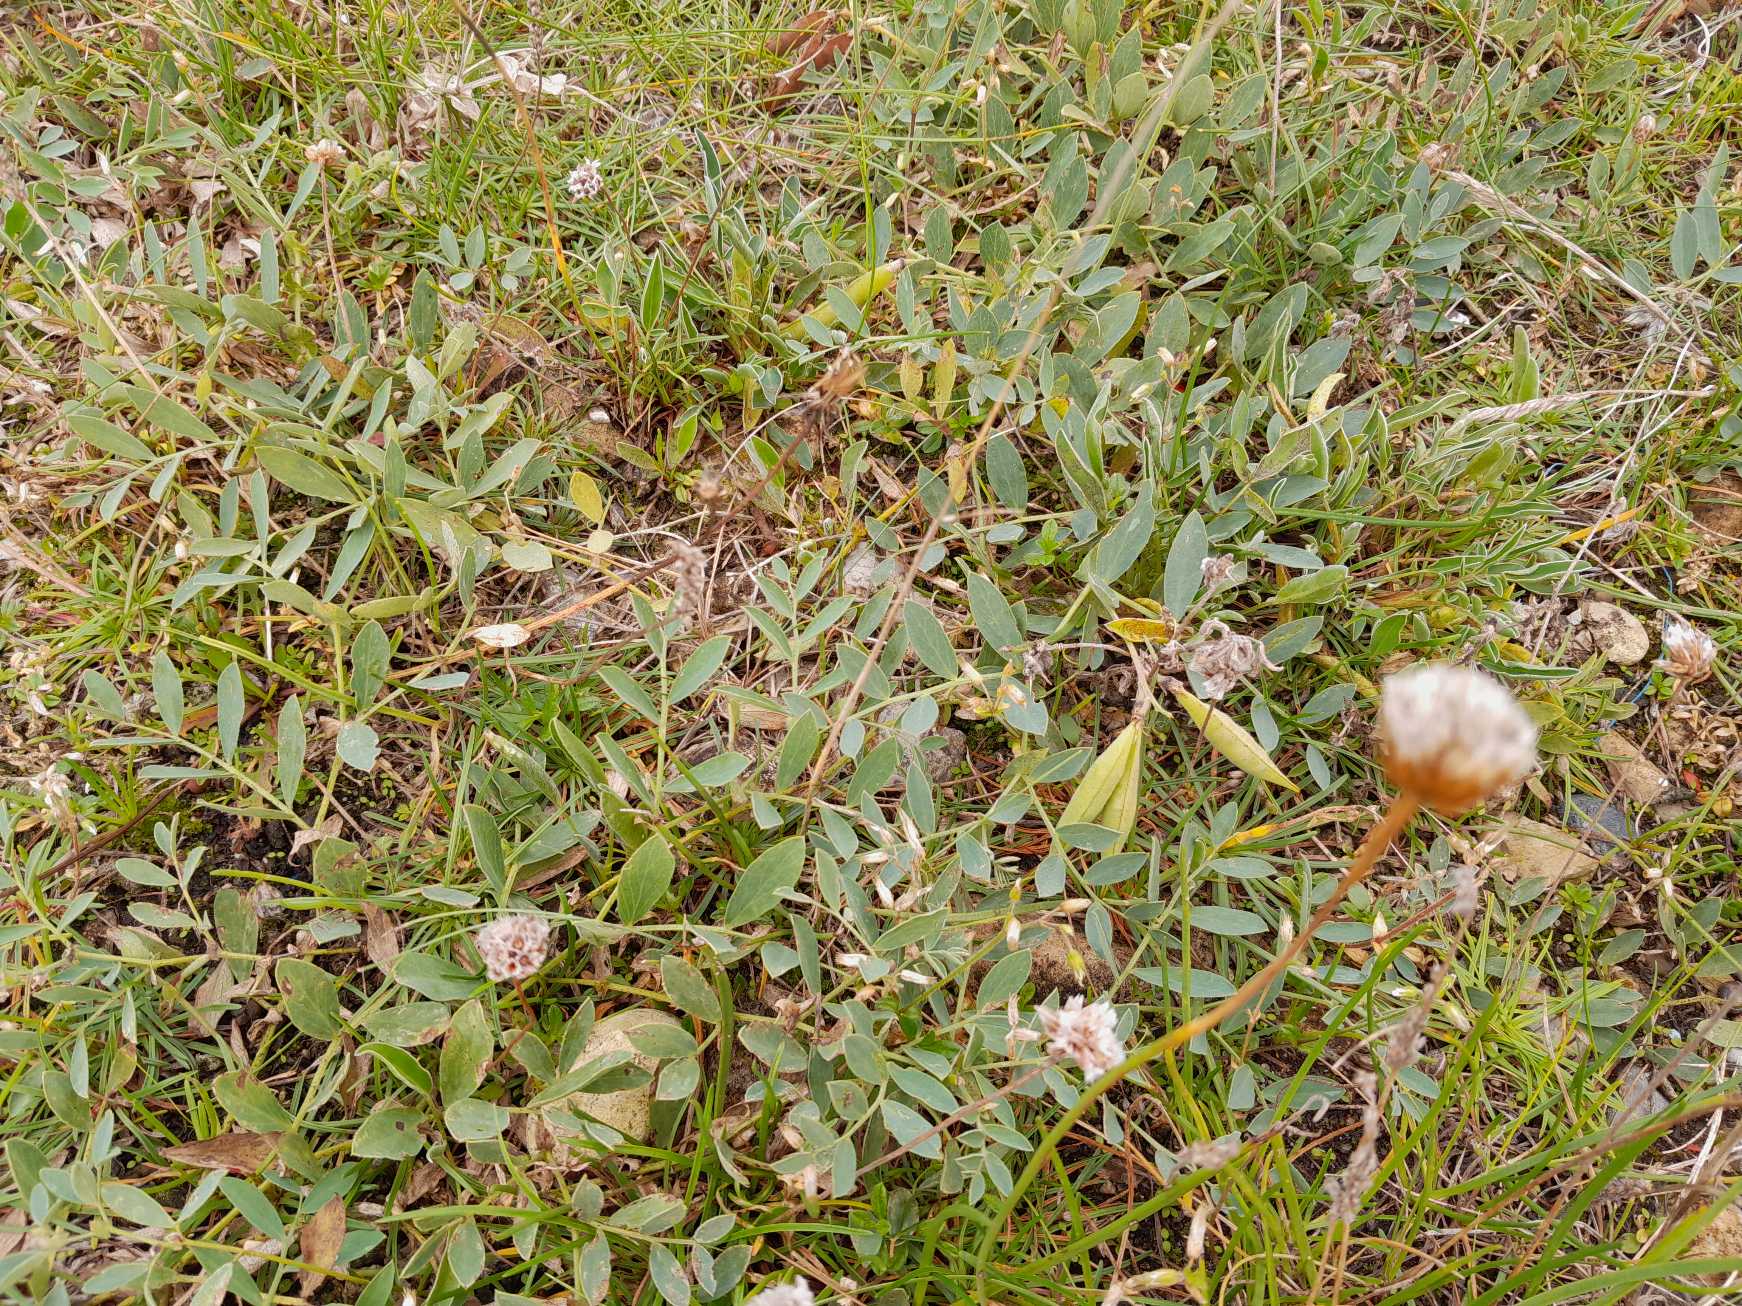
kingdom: Plantae
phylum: Tracheophyta
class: Magnoliopsida
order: Fabales
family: Fabaceae
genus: Lathyrus
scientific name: Lathyrus japonicus
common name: Strand-fladbælg
